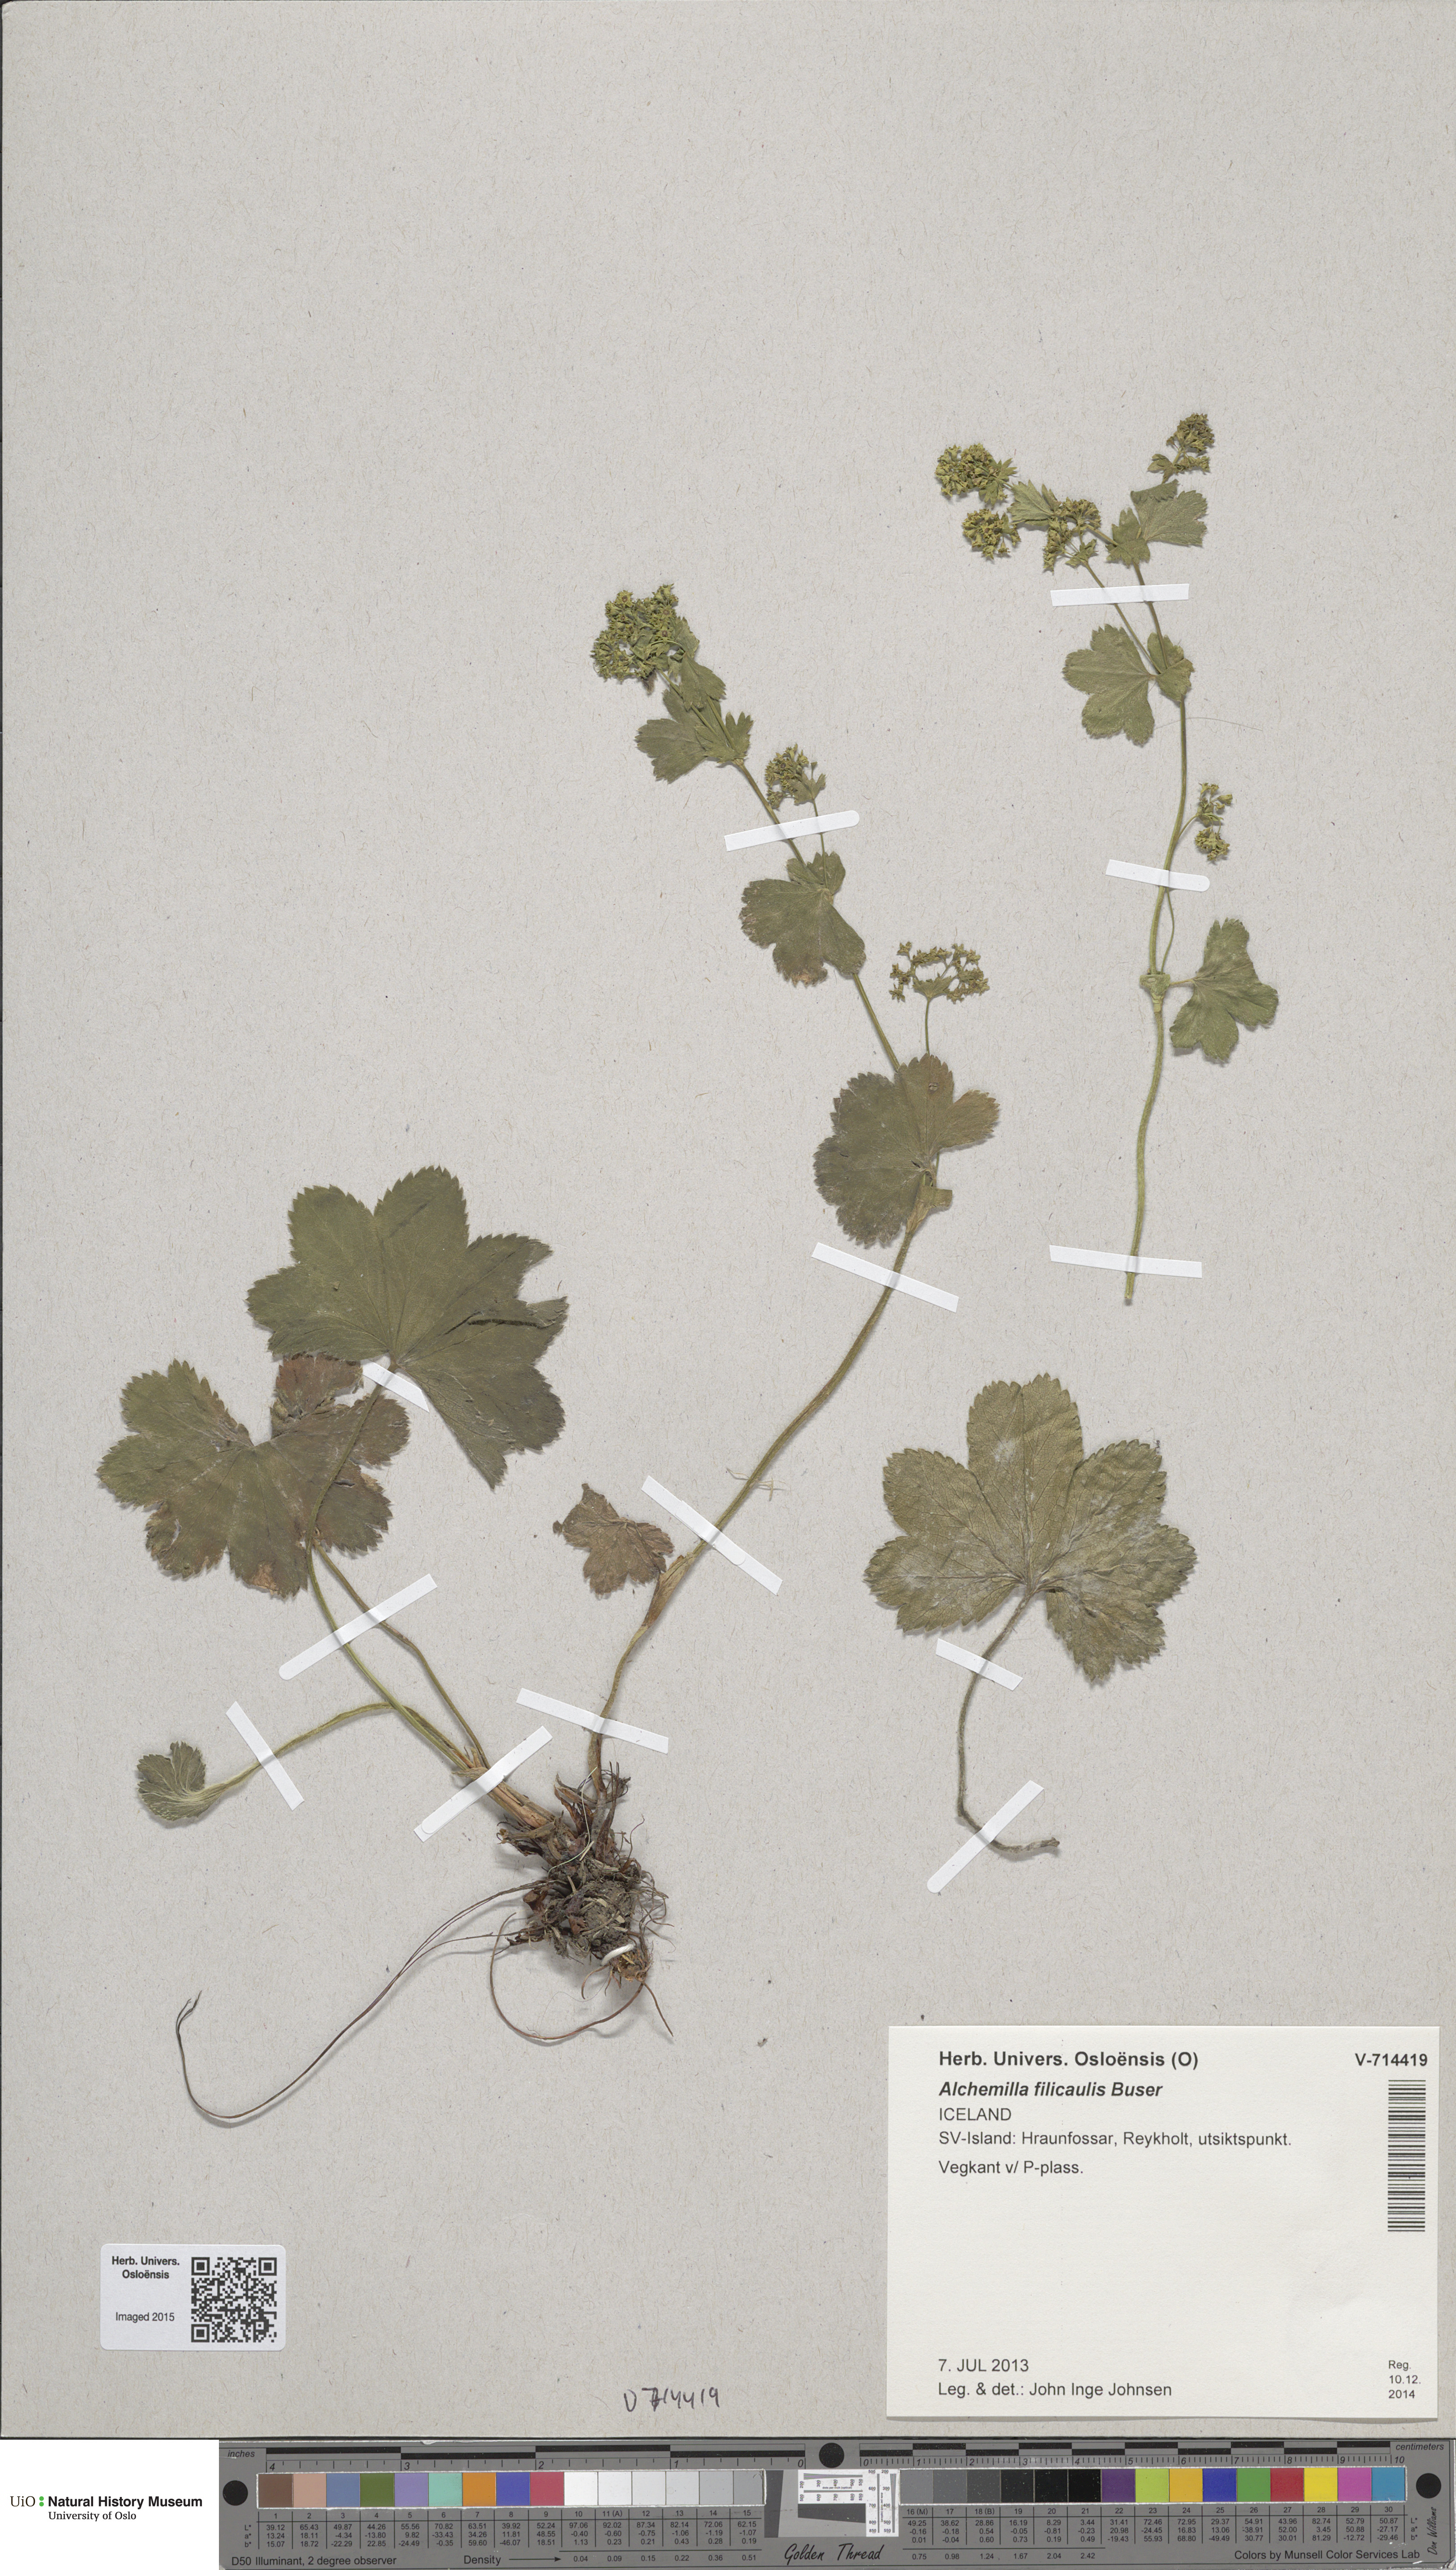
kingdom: Plantae
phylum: Tracheophyta
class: Magnoliopsida
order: Rosales
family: Rosaceae
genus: Alchemilla
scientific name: Alchemilla filicaulis
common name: Hairy lady's-mantle
